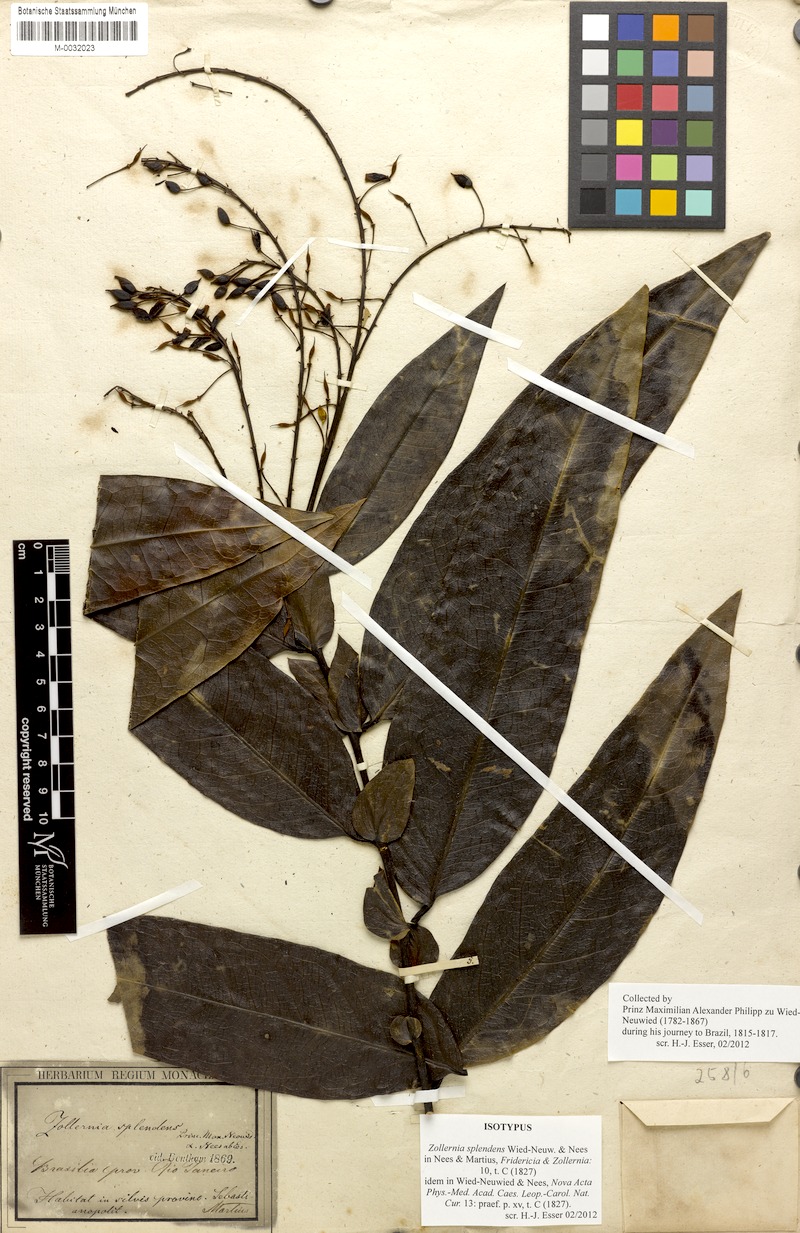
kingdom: Plantae
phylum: Tracheophyta
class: Magnoliopsida
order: Fabales
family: Fabaceae
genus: Zollernia
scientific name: Zollernia
